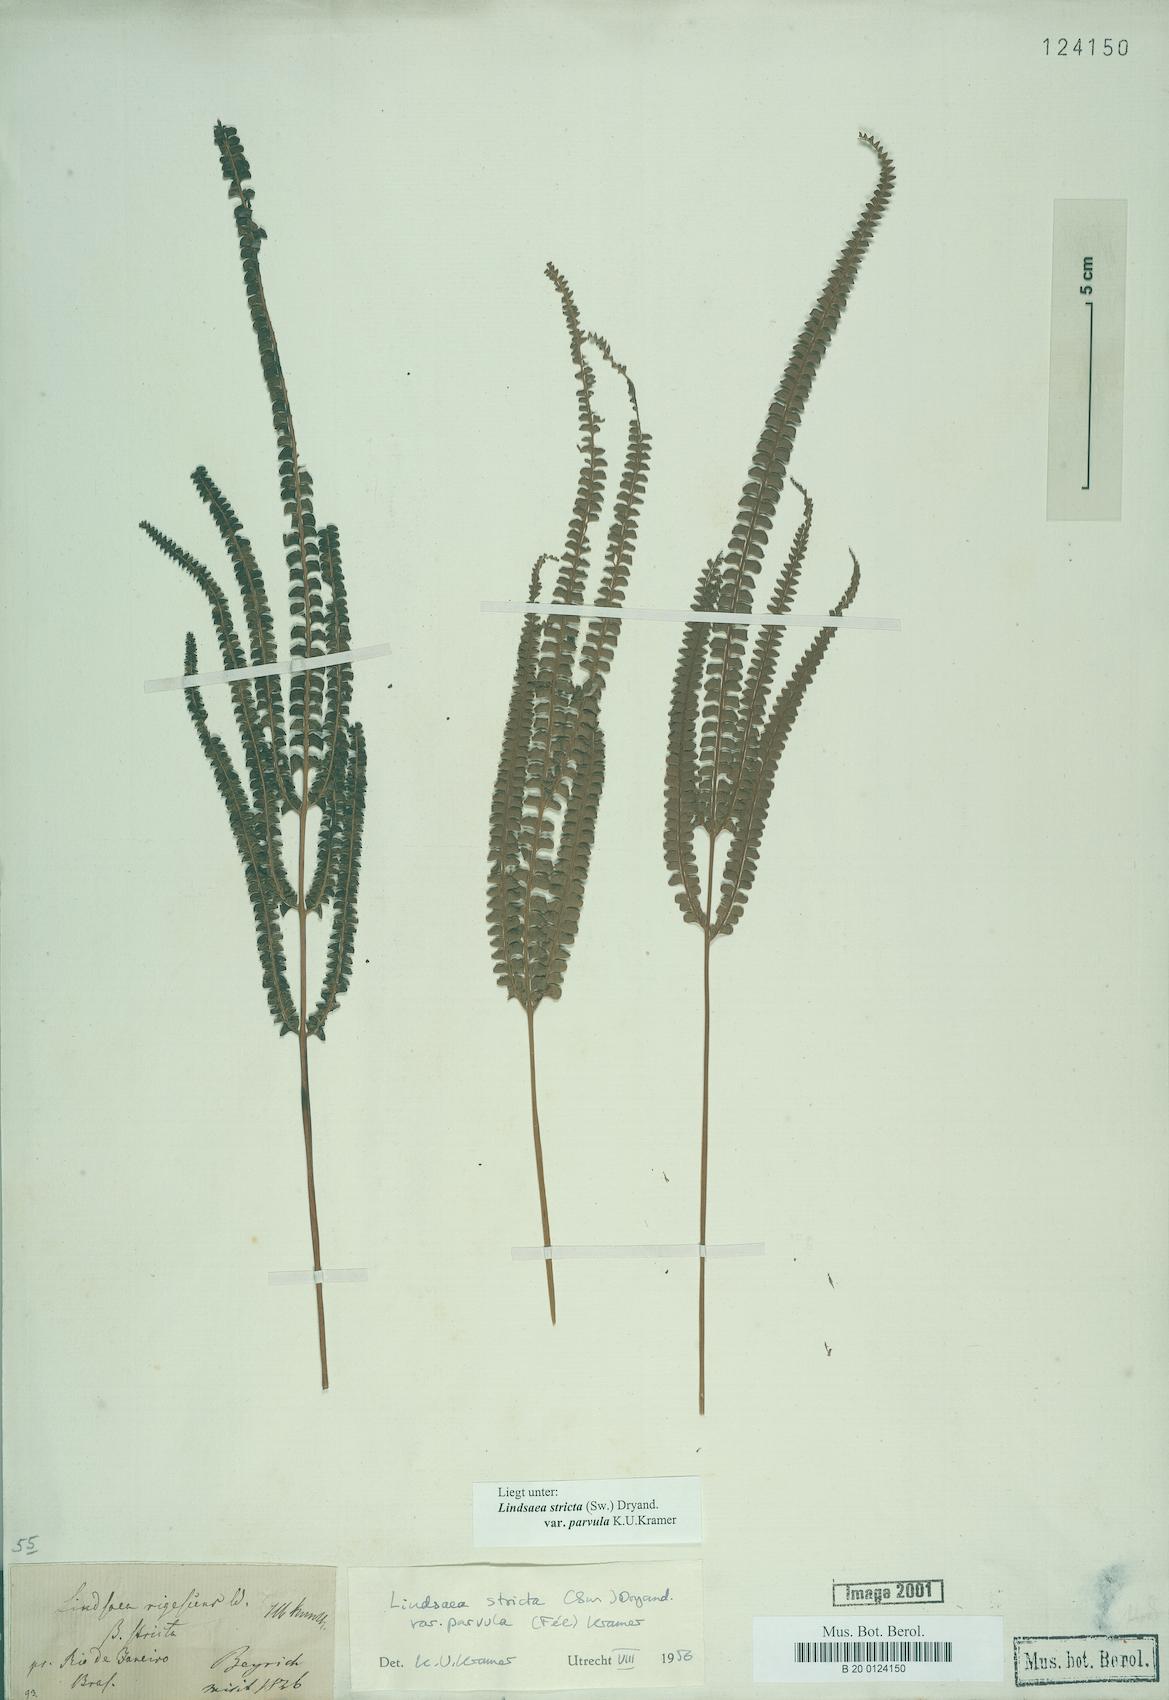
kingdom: Plantae
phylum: Tracheophyta
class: Polypodiopsida
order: Polypodiales
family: Lindsaeaceae
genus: Lindsaea
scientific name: Lindsaea stricta
